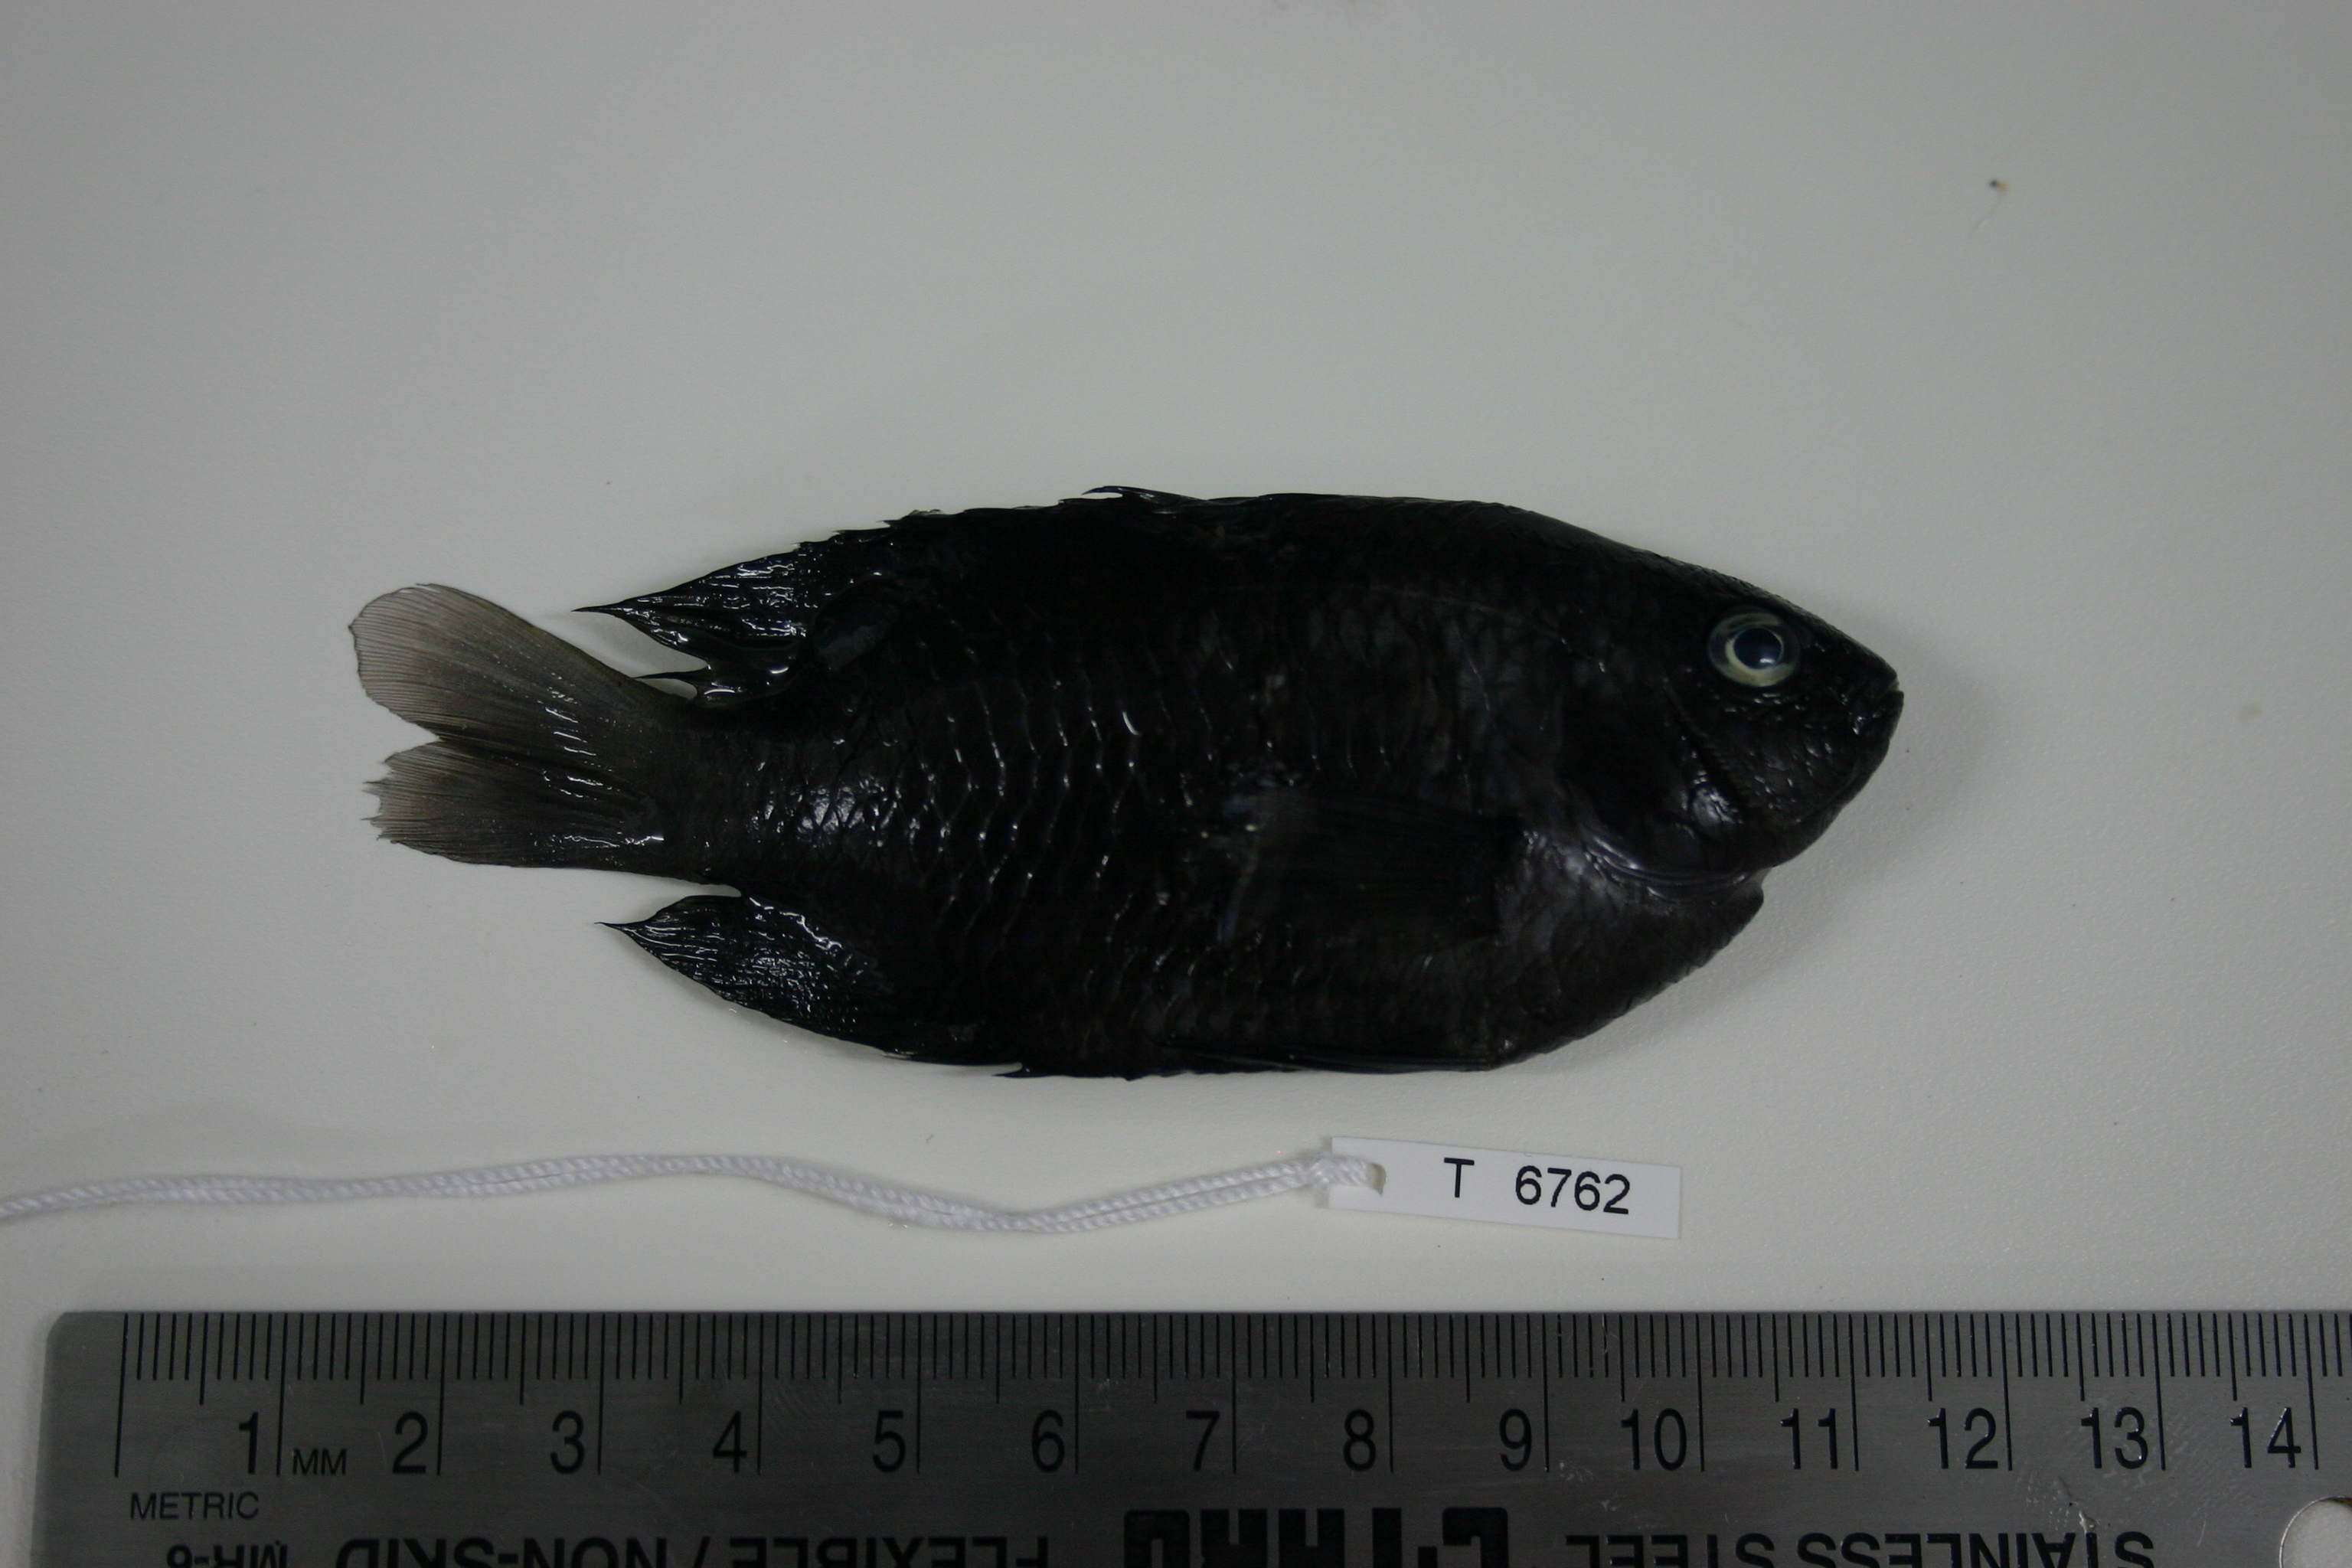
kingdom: Animalia
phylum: Chordata
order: Perciformes
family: Pomacentridae
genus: Stegastes
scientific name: Stegastes fasciolatus
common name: Pacific gregory
